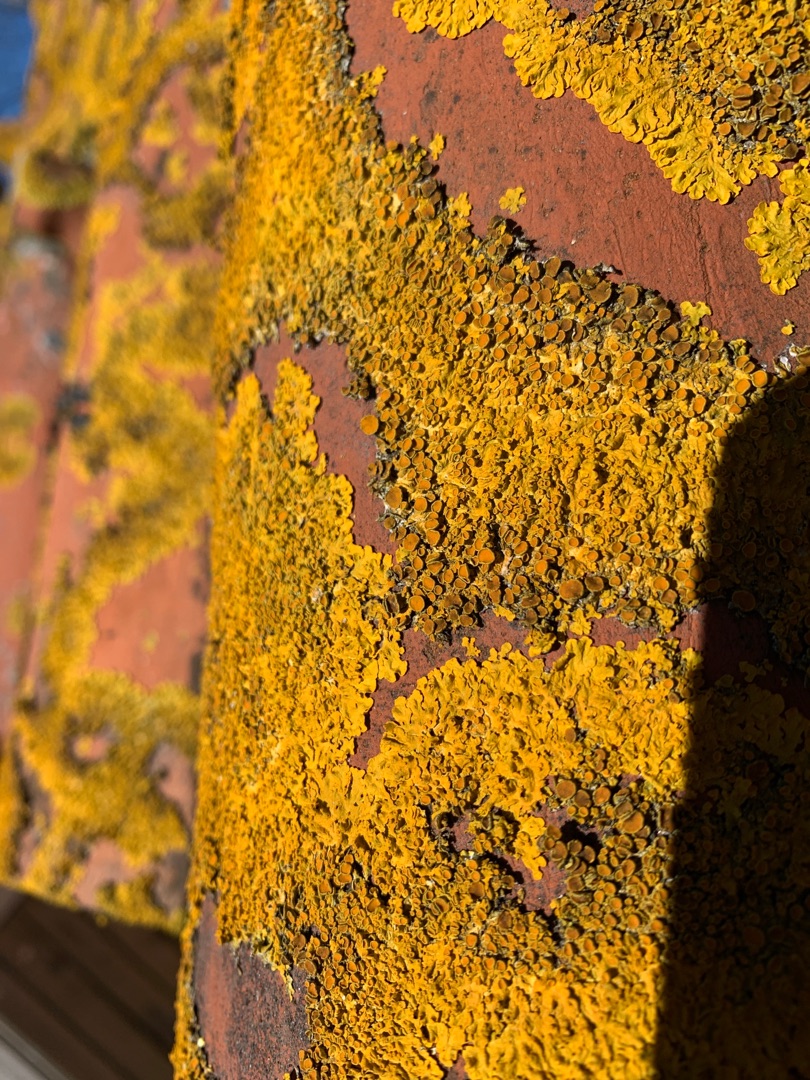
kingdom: Fungi
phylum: Ascomycota
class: Lecanoromycetes
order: Teloschistales
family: Teloschistaceae
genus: Xanthoria
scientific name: Xanthoria parietina
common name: Almindelig væggelav
